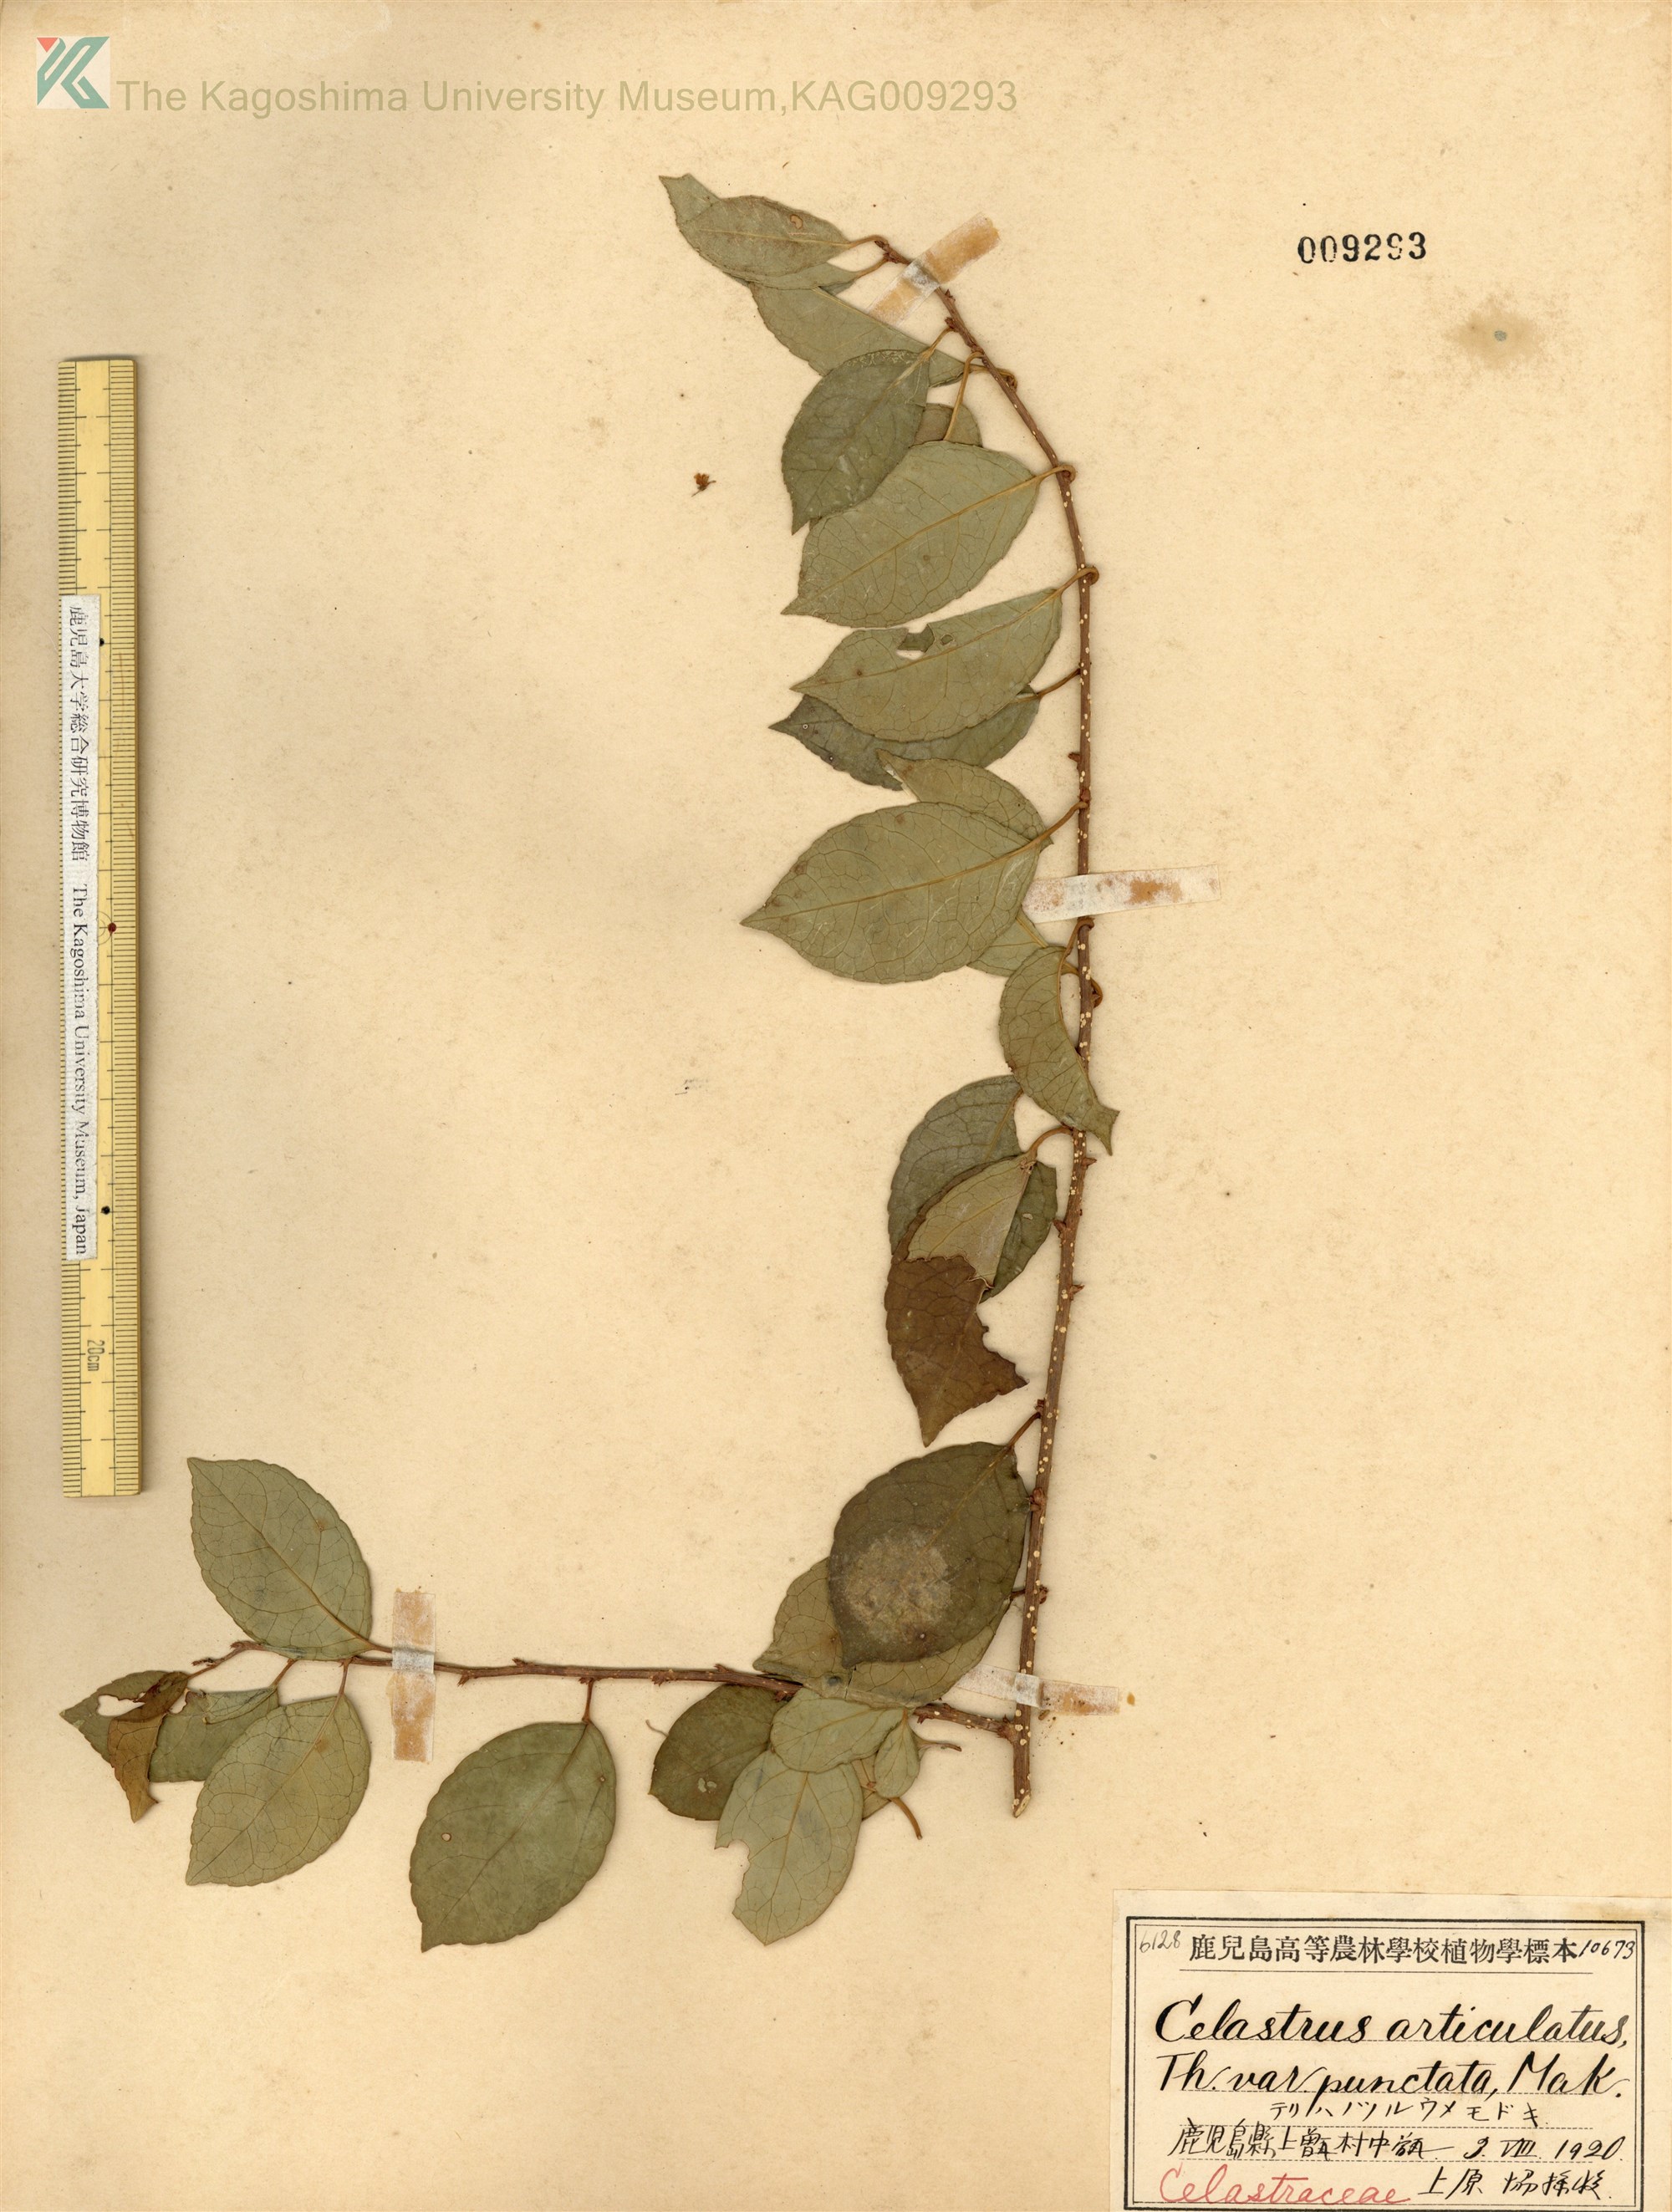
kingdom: Plantae
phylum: Tracheophyta
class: Magnoliopsida
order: Celastrales
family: Celastraceae
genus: Celastrus
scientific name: Celastrus punctatus
